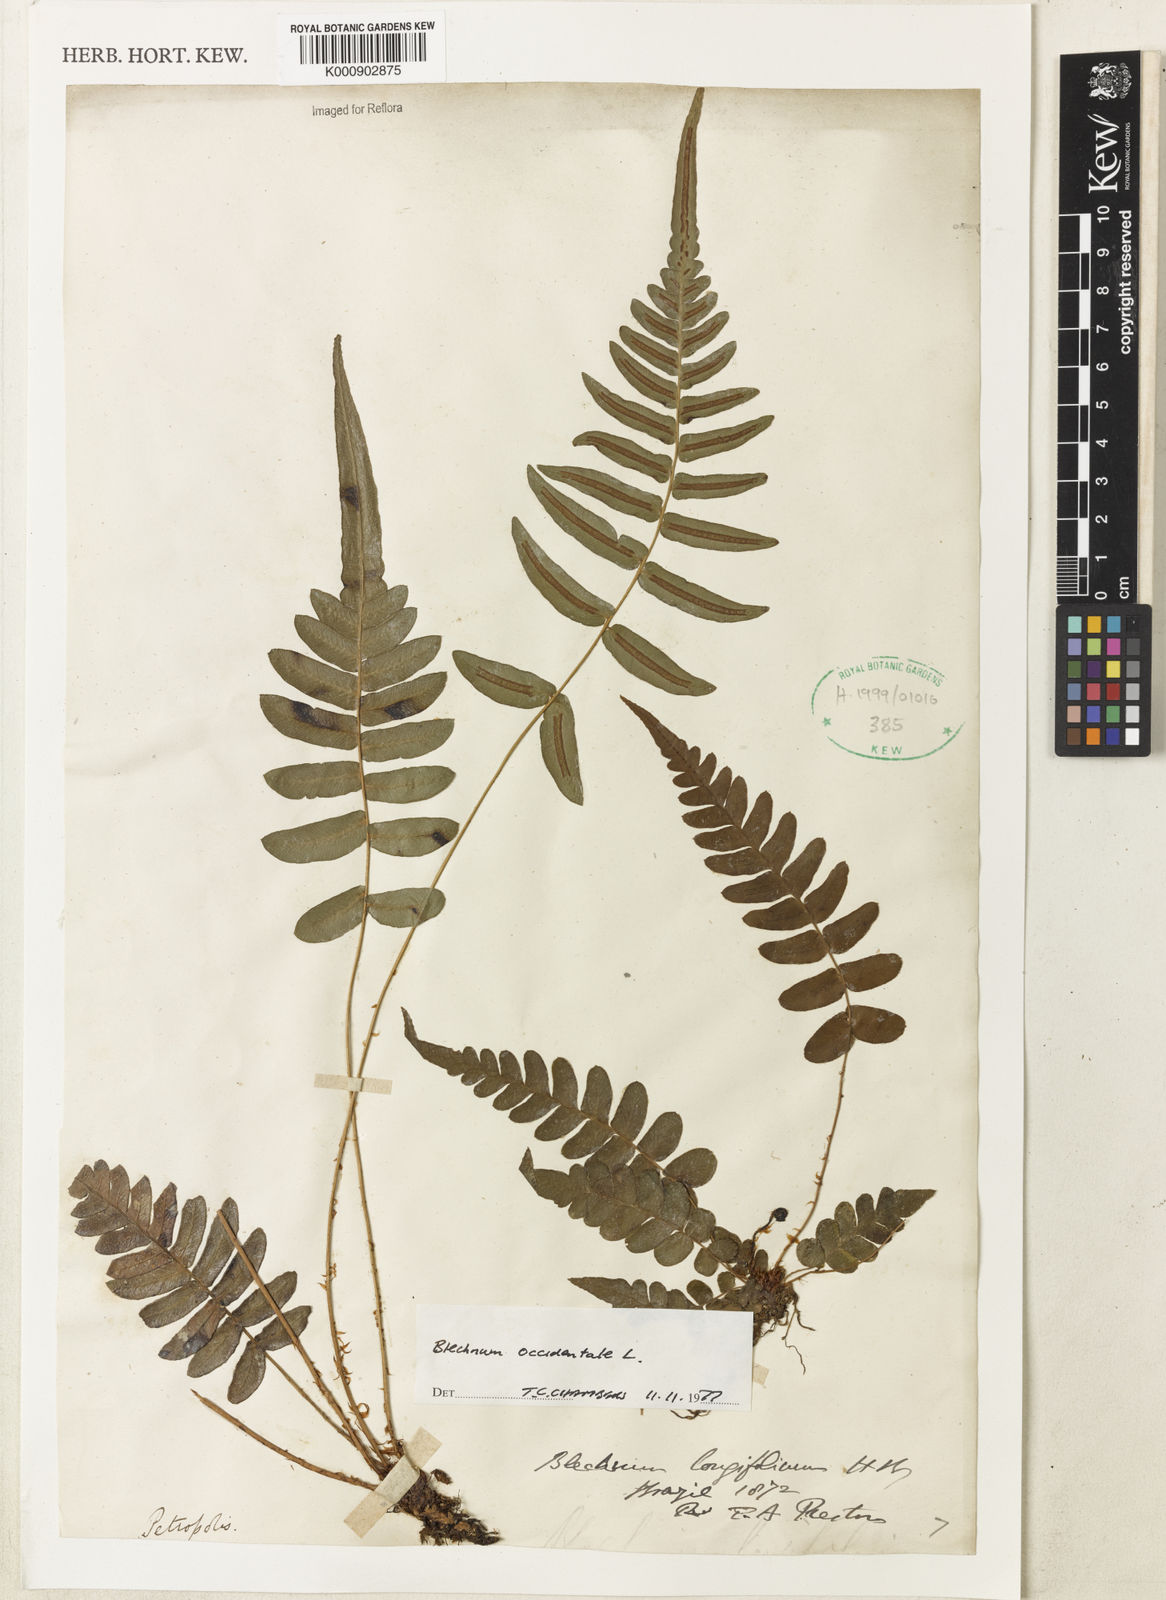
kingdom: Plantae
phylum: Tracheophyta
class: Polypodiopsida
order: Polypodiales
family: Blechnaceae
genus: Blechnum
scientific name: Blechnum occidentale
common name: Hammock fern
